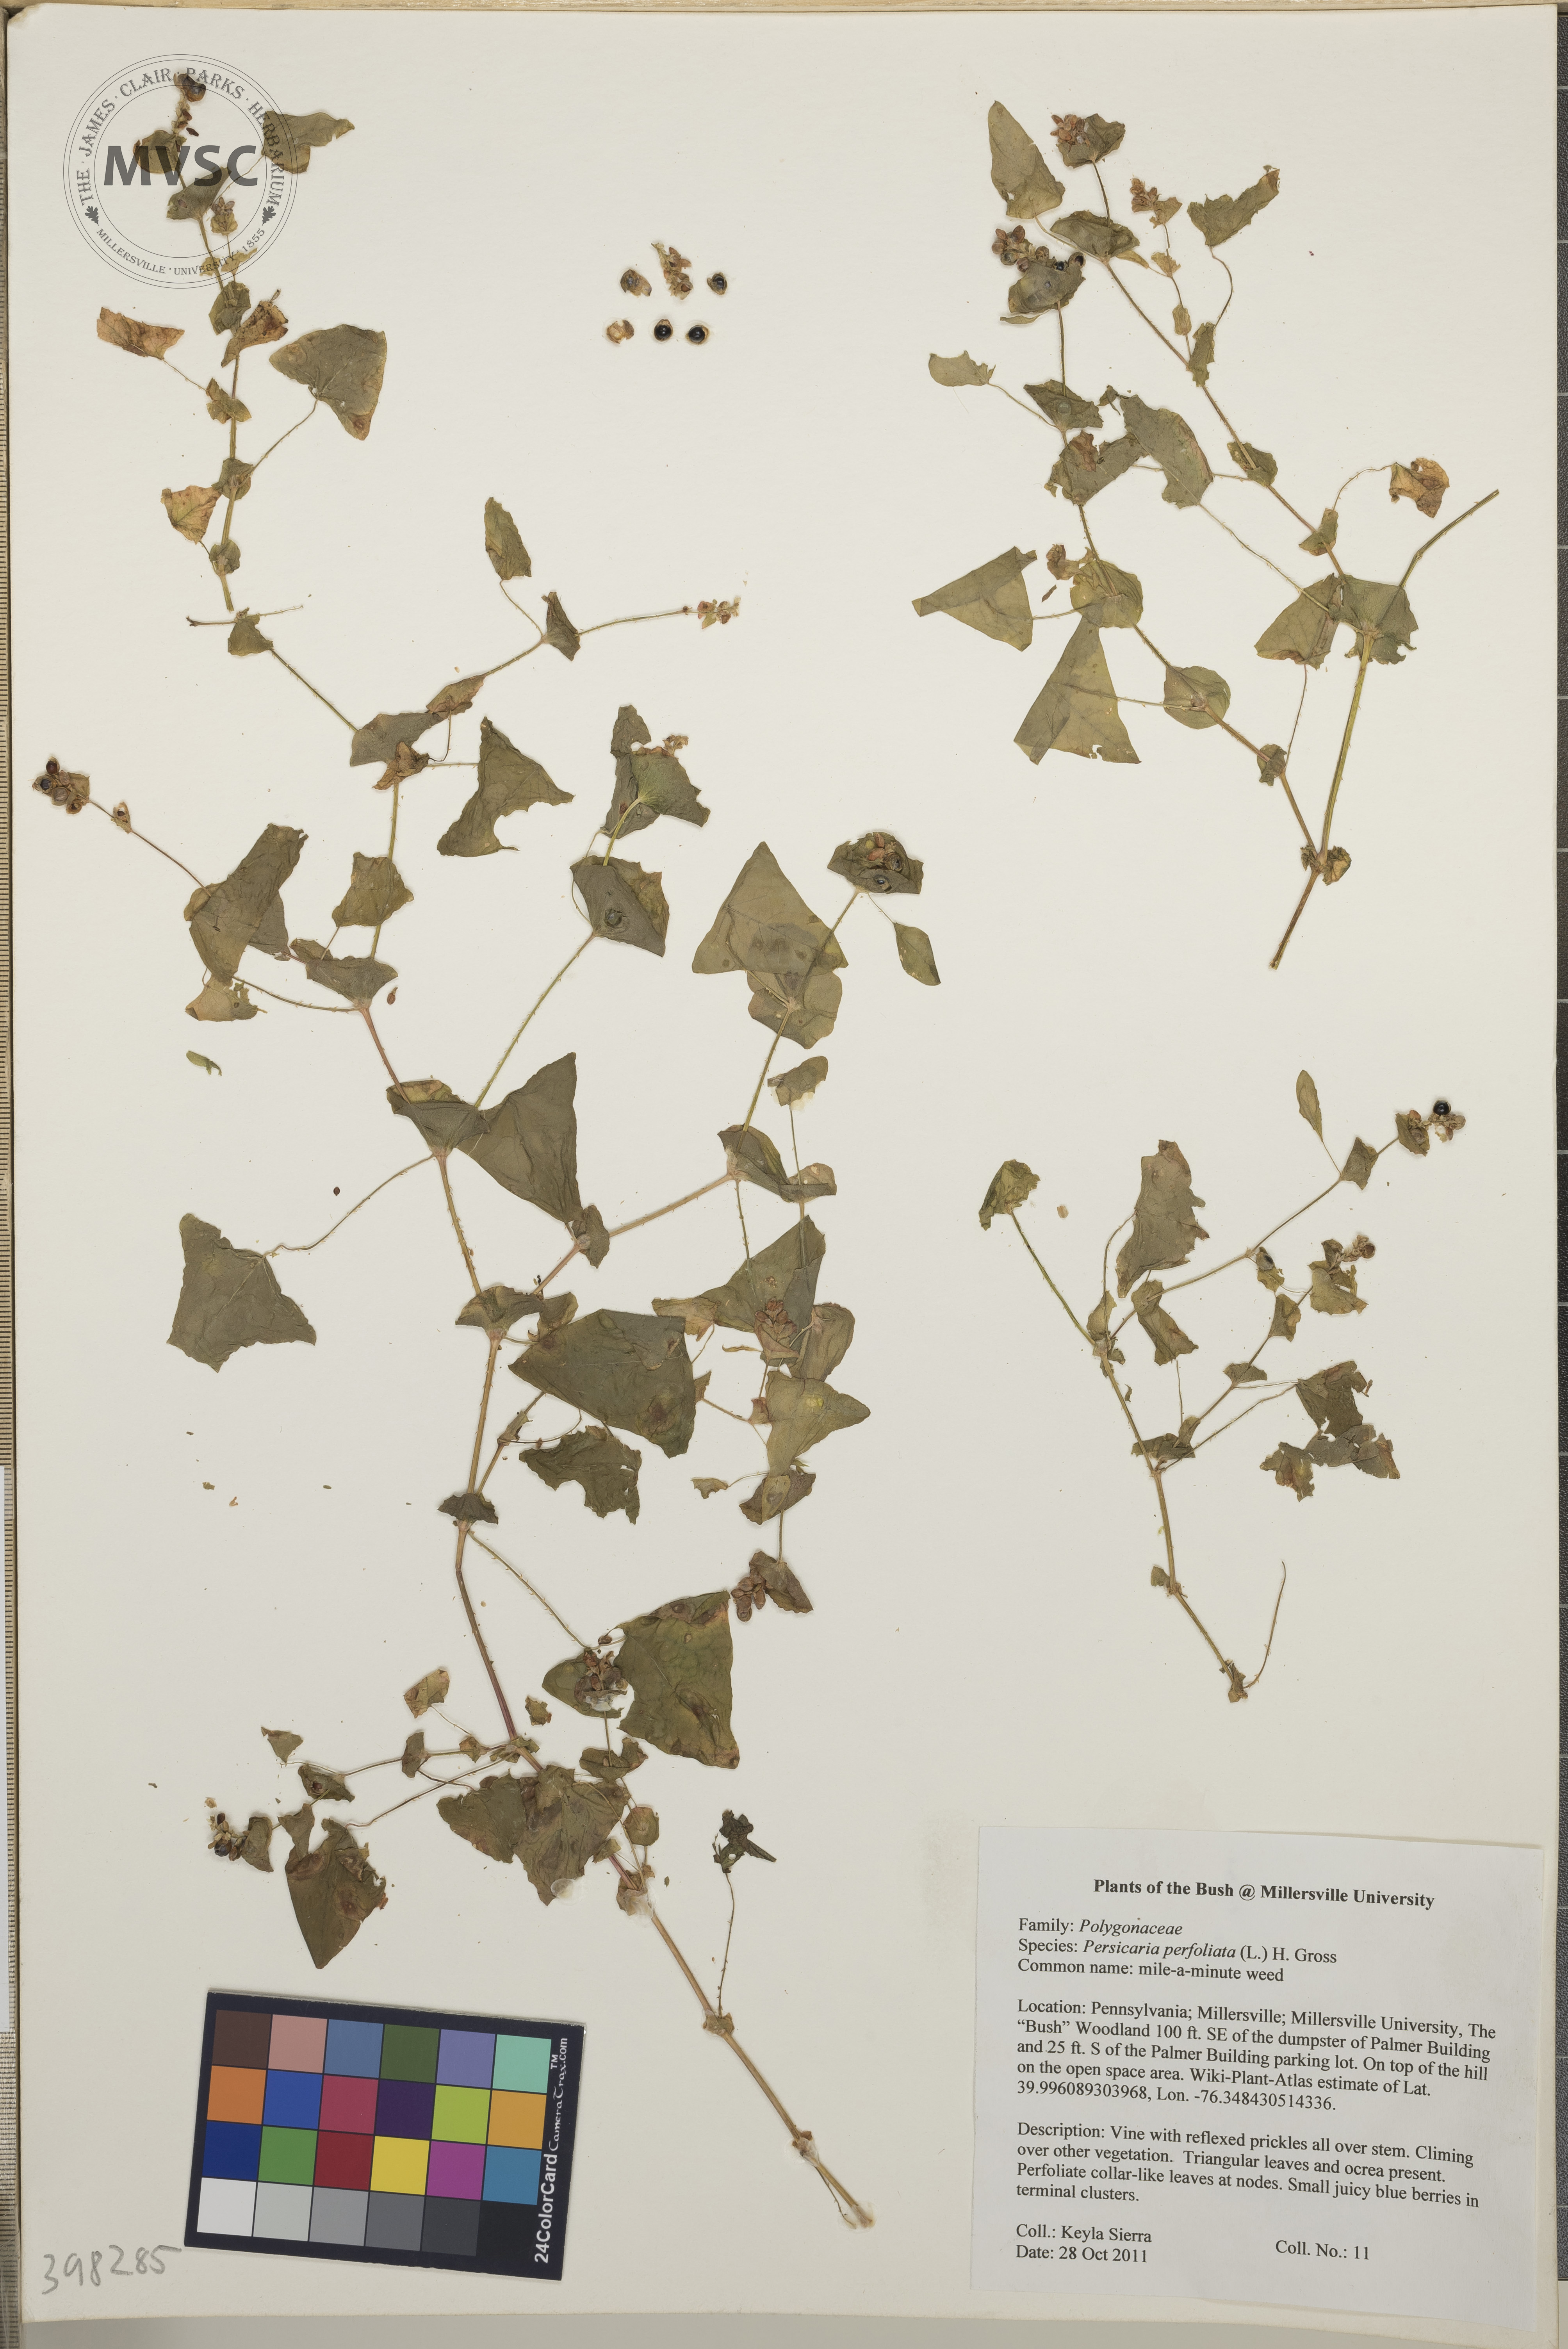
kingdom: Plantae
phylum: Tracheophyta
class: Magnoliopsida
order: Caryophyllales
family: Polygonaceae
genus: Persicaria
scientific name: Persicaria perfoliata
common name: Mile-a-minute weed
